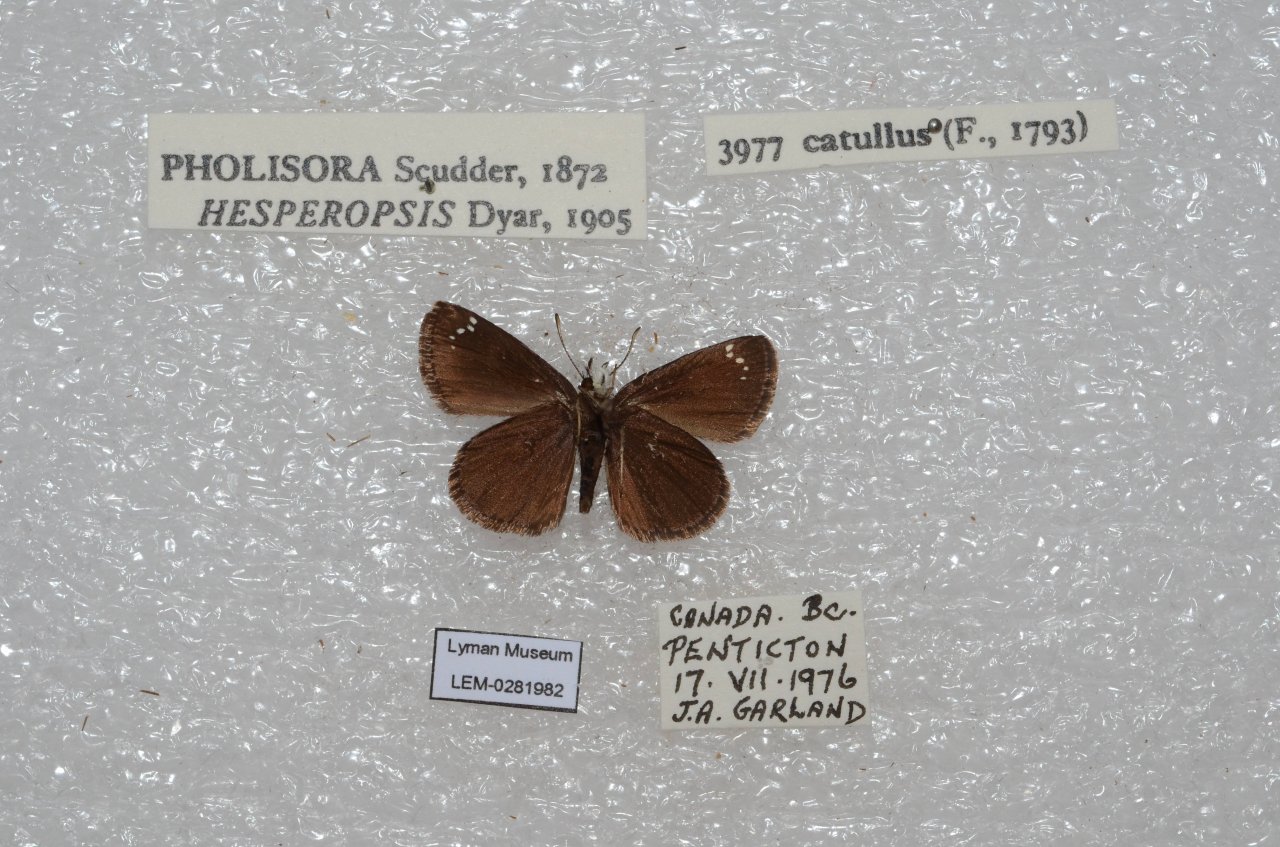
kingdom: Animalia
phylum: Arthropoda
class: Insecta
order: Lepidoptera
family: Hesperiidae
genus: Pholisora
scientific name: Pholisora catullus
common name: Common Sootywing
